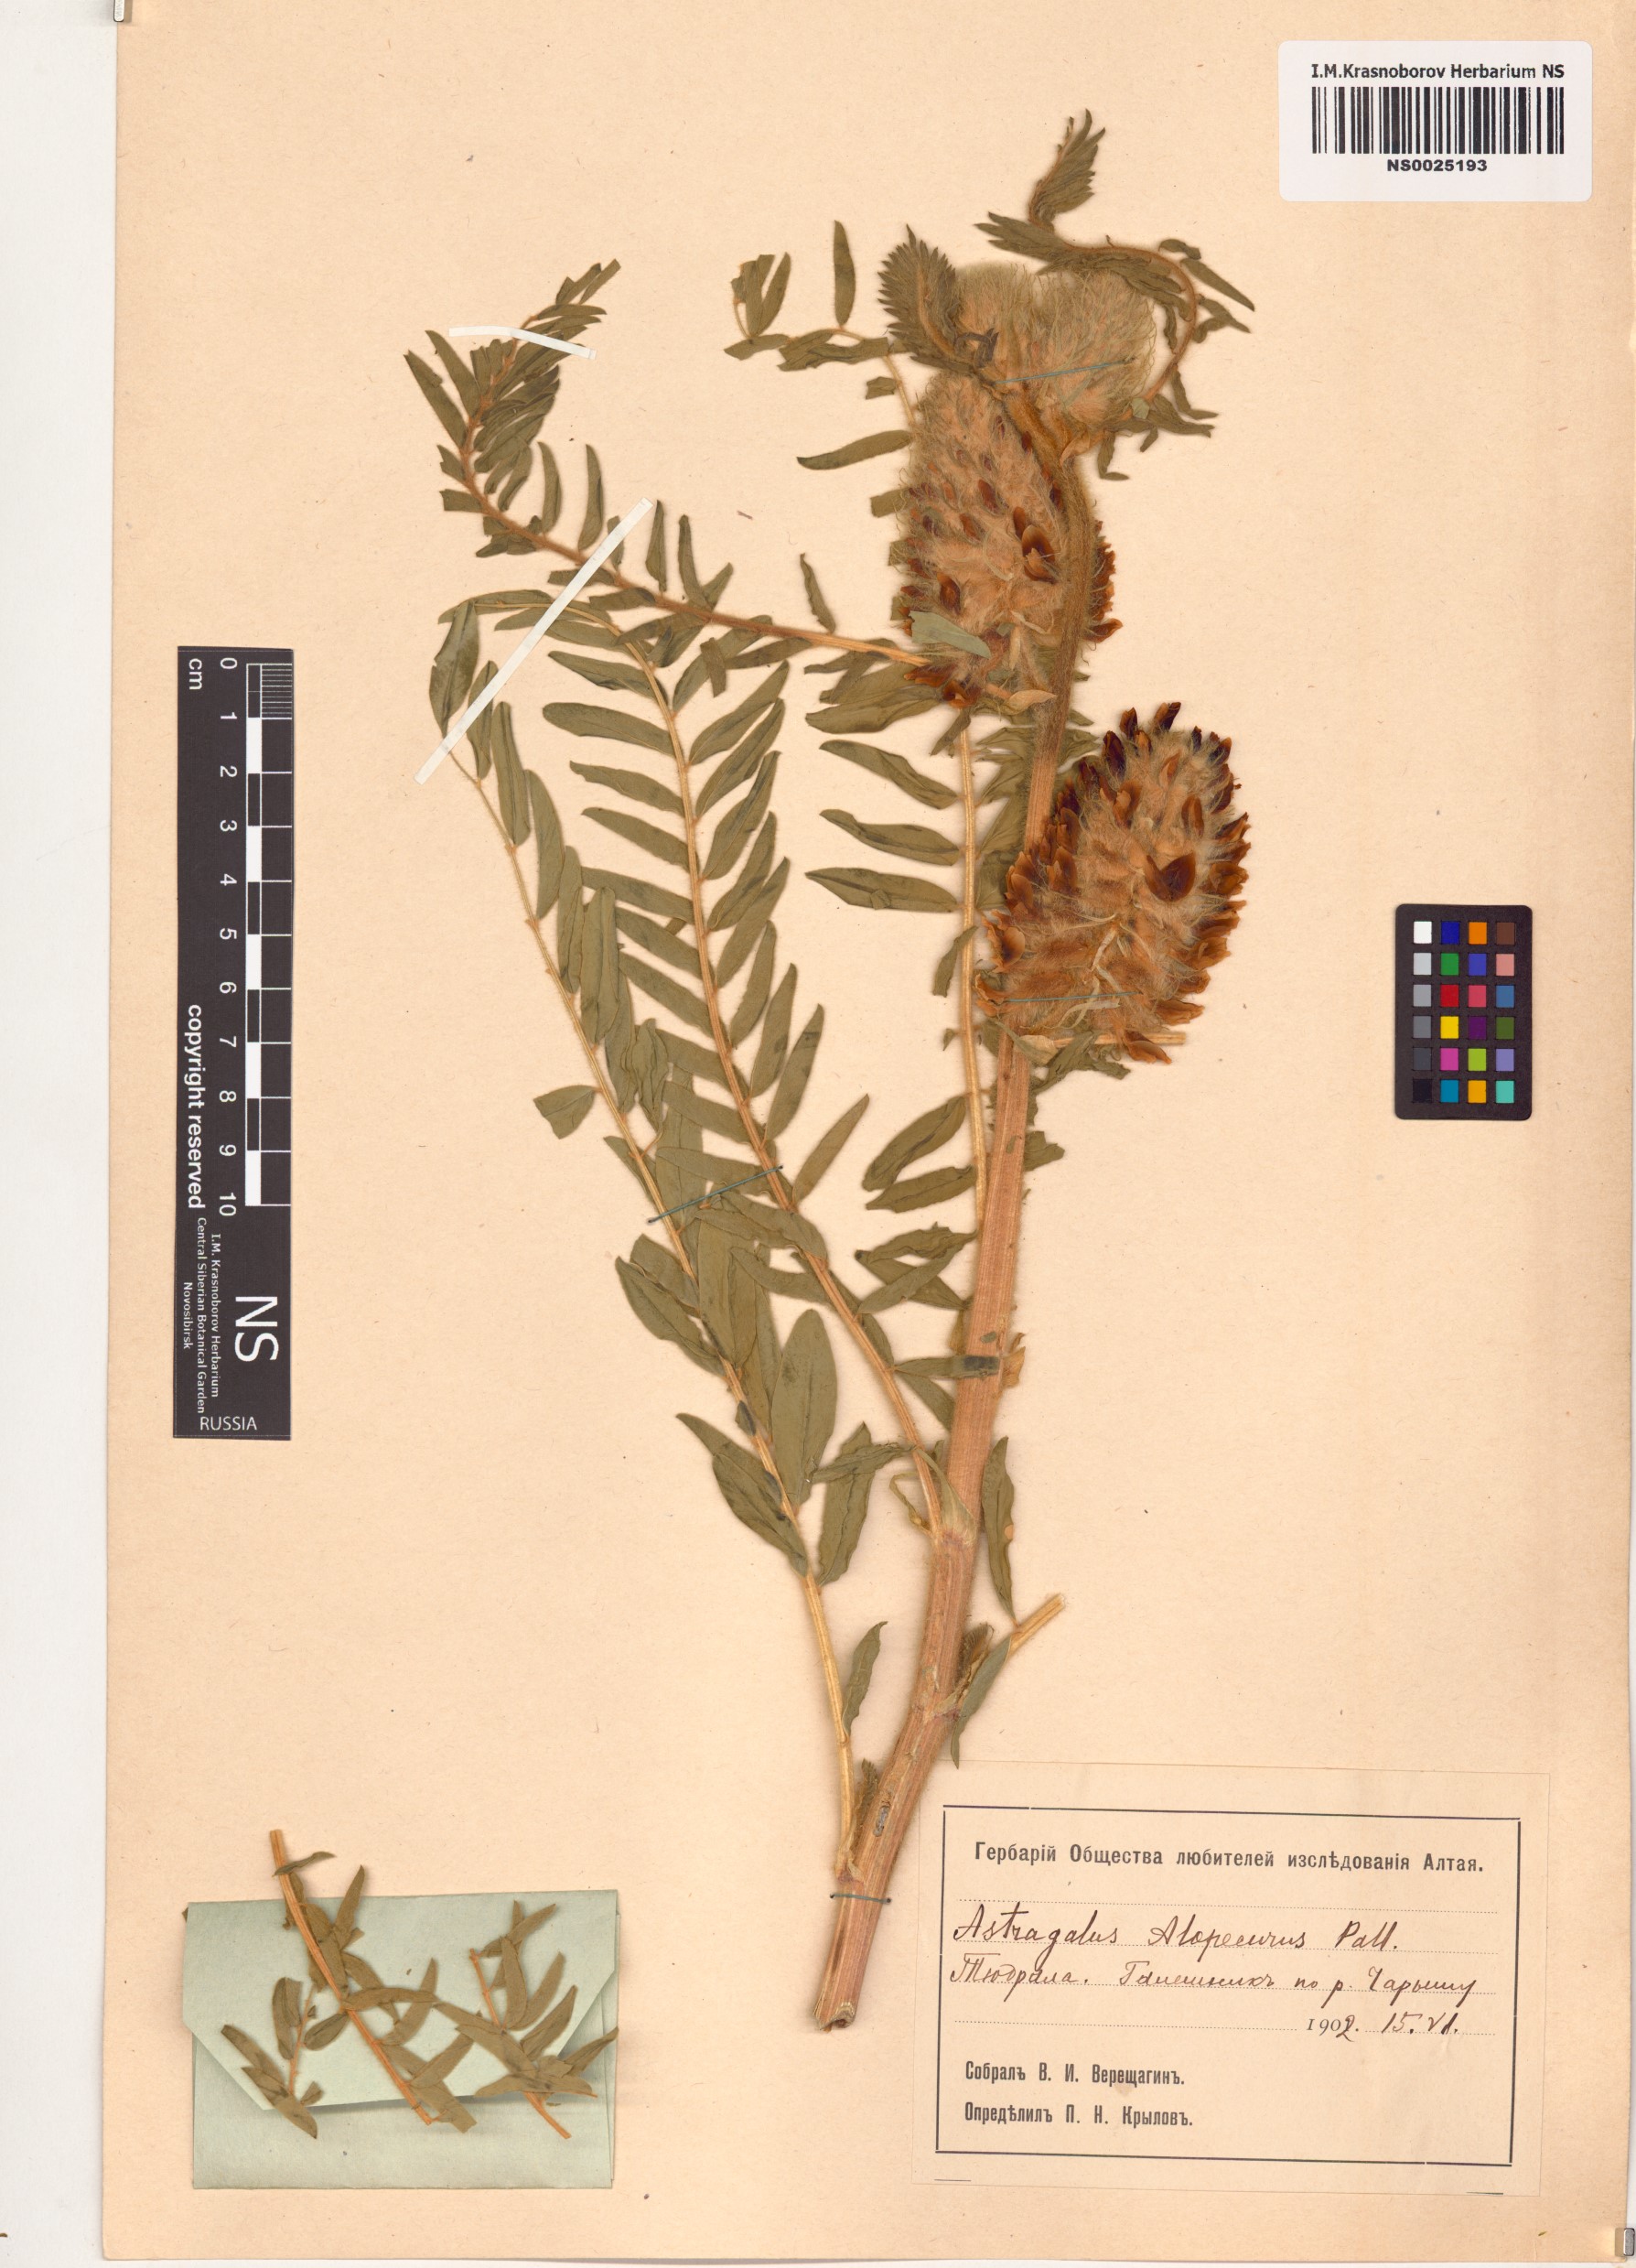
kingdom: Plantae
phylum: Tracheophyta
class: Magnoliopsida
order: Fabales
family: Fabaceae
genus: Astragalus
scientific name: Astragalus alopecurus
